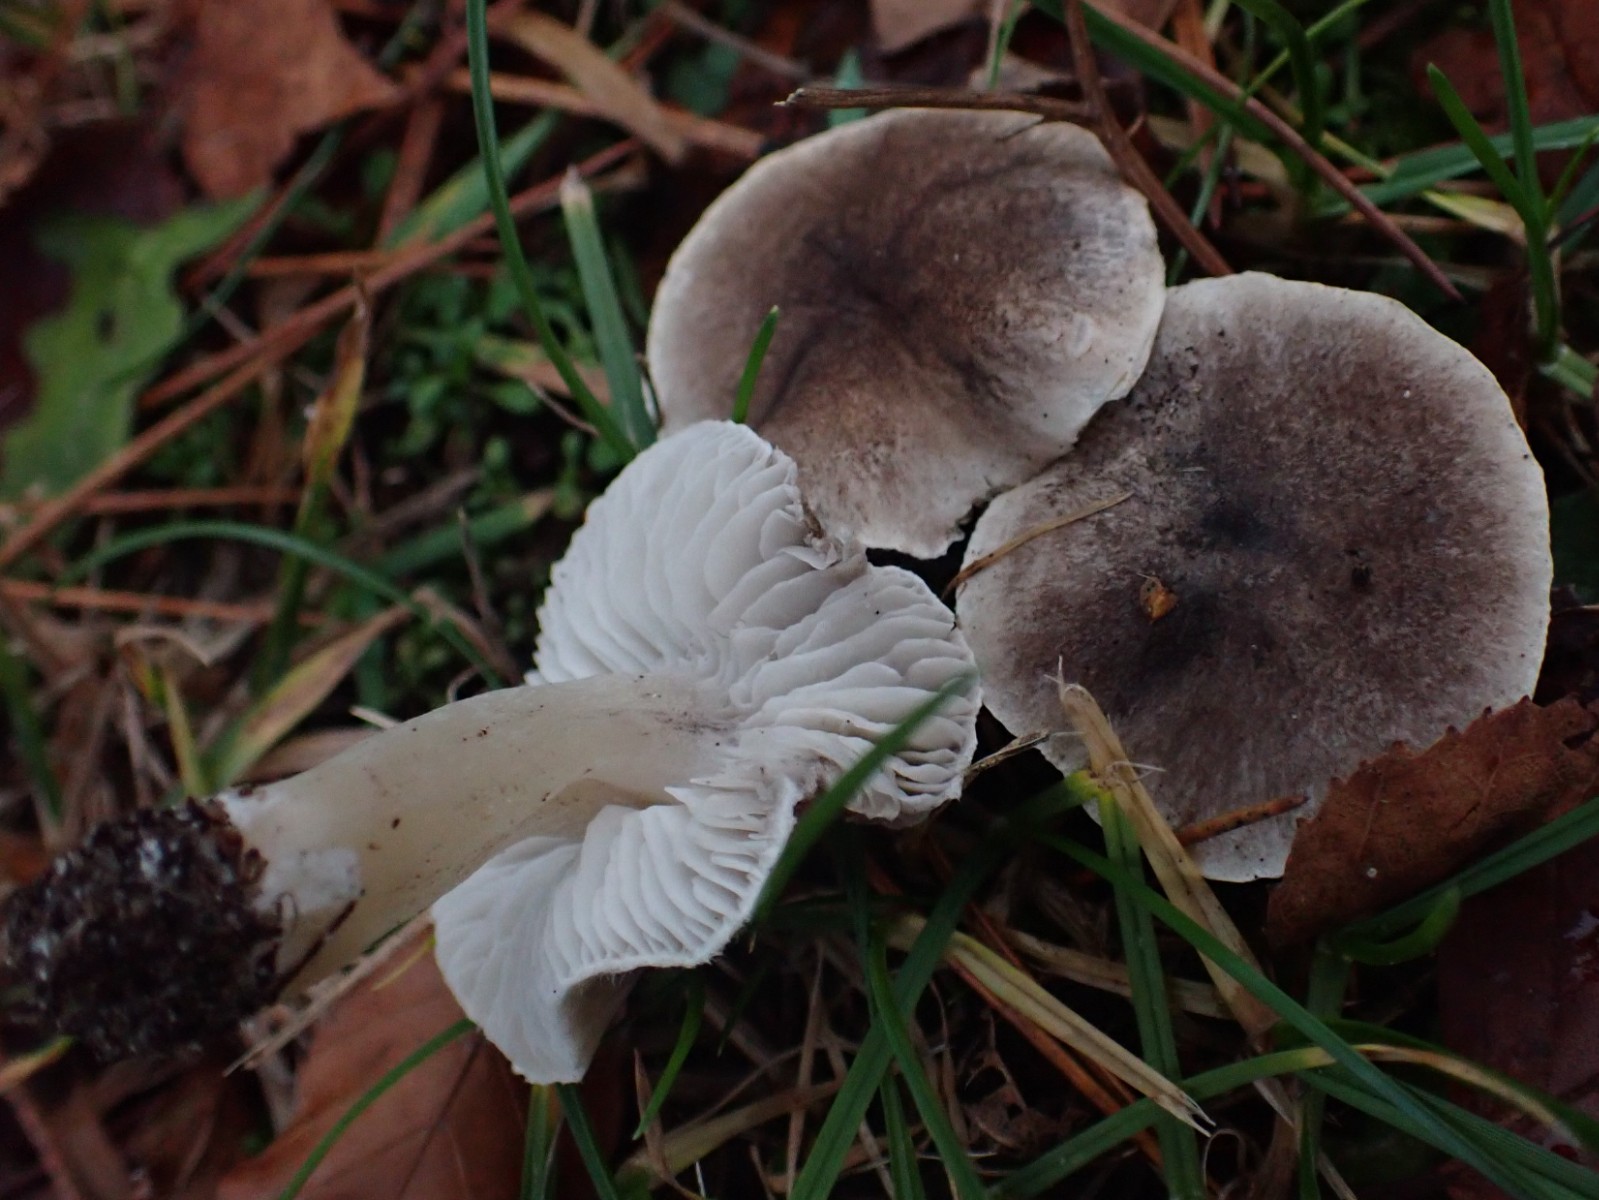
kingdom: Fungi
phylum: Basidiomycota
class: Agaricomycetes
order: Agaricales
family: Tricholomataceae
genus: Tricholoma
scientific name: Tricholoma terreum
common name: jordfarvet ridderhat
